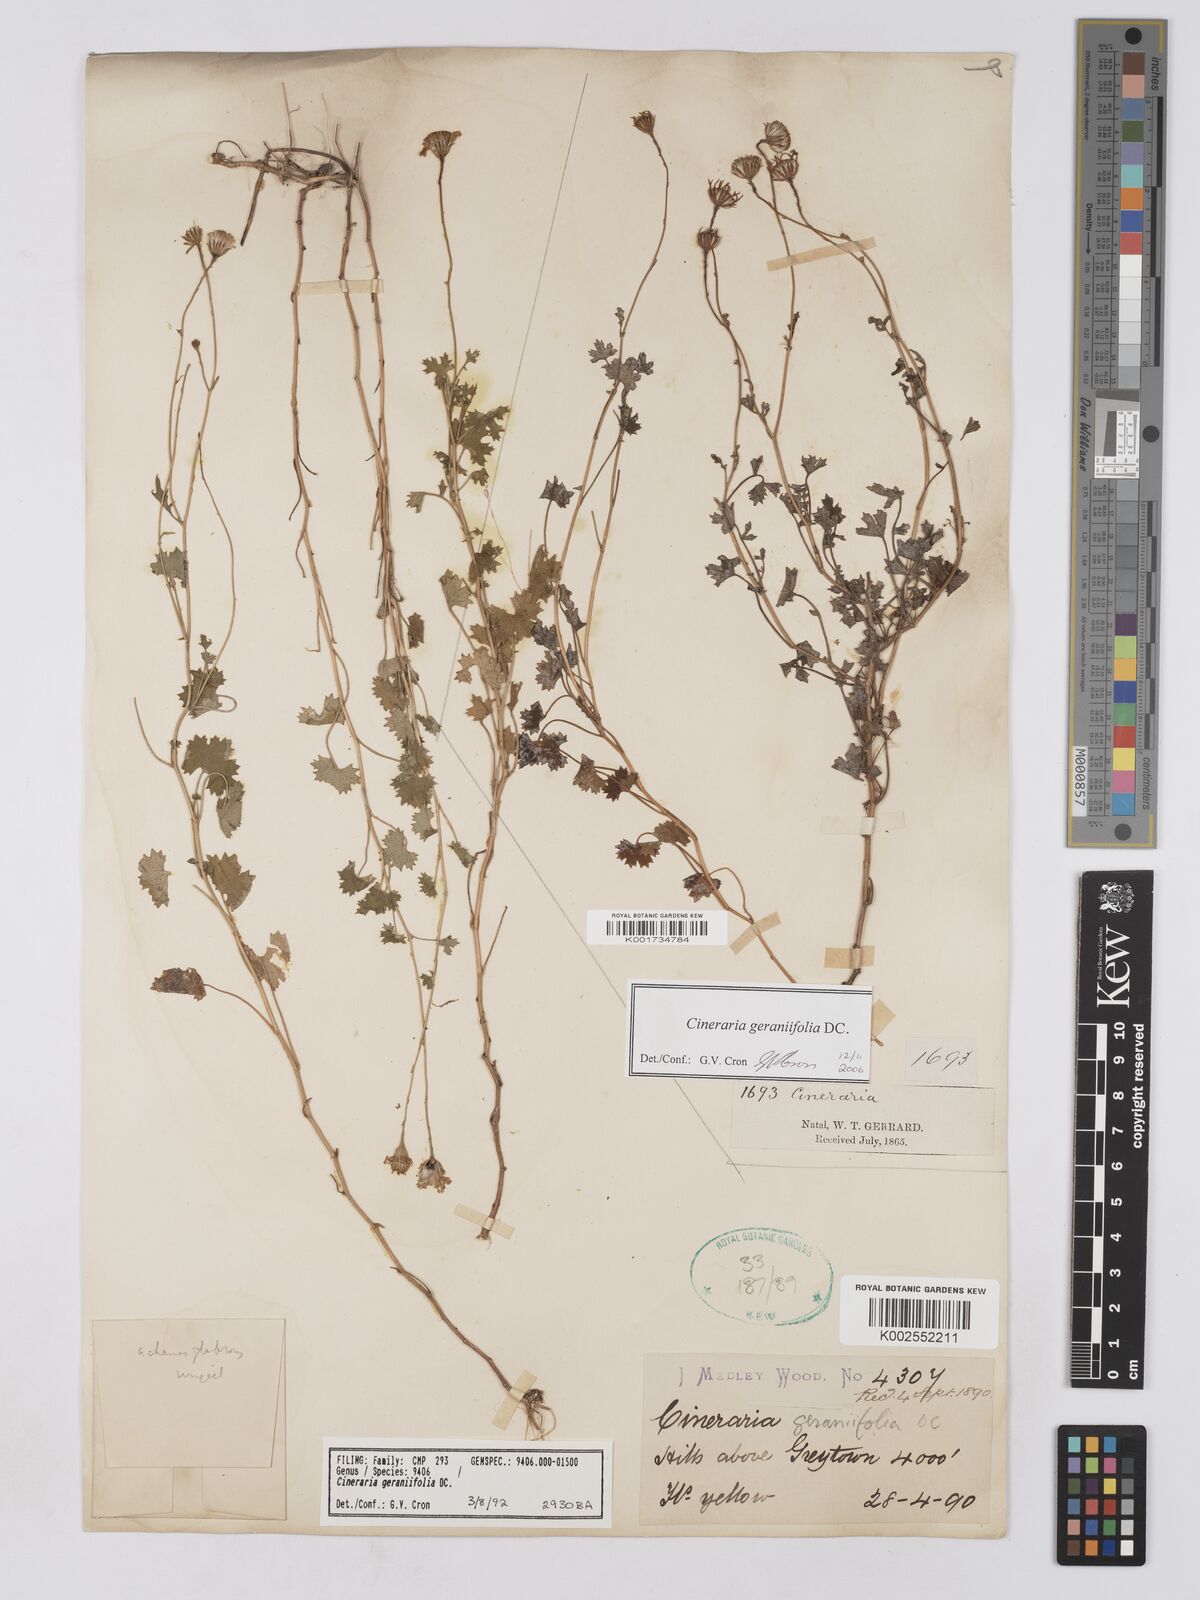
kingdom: Plantae
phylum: Tracheophyta
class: Magnoliopsida
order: Asterales
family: Asteraceae
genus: Cineraria
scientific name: Cineraria geraniifolia
